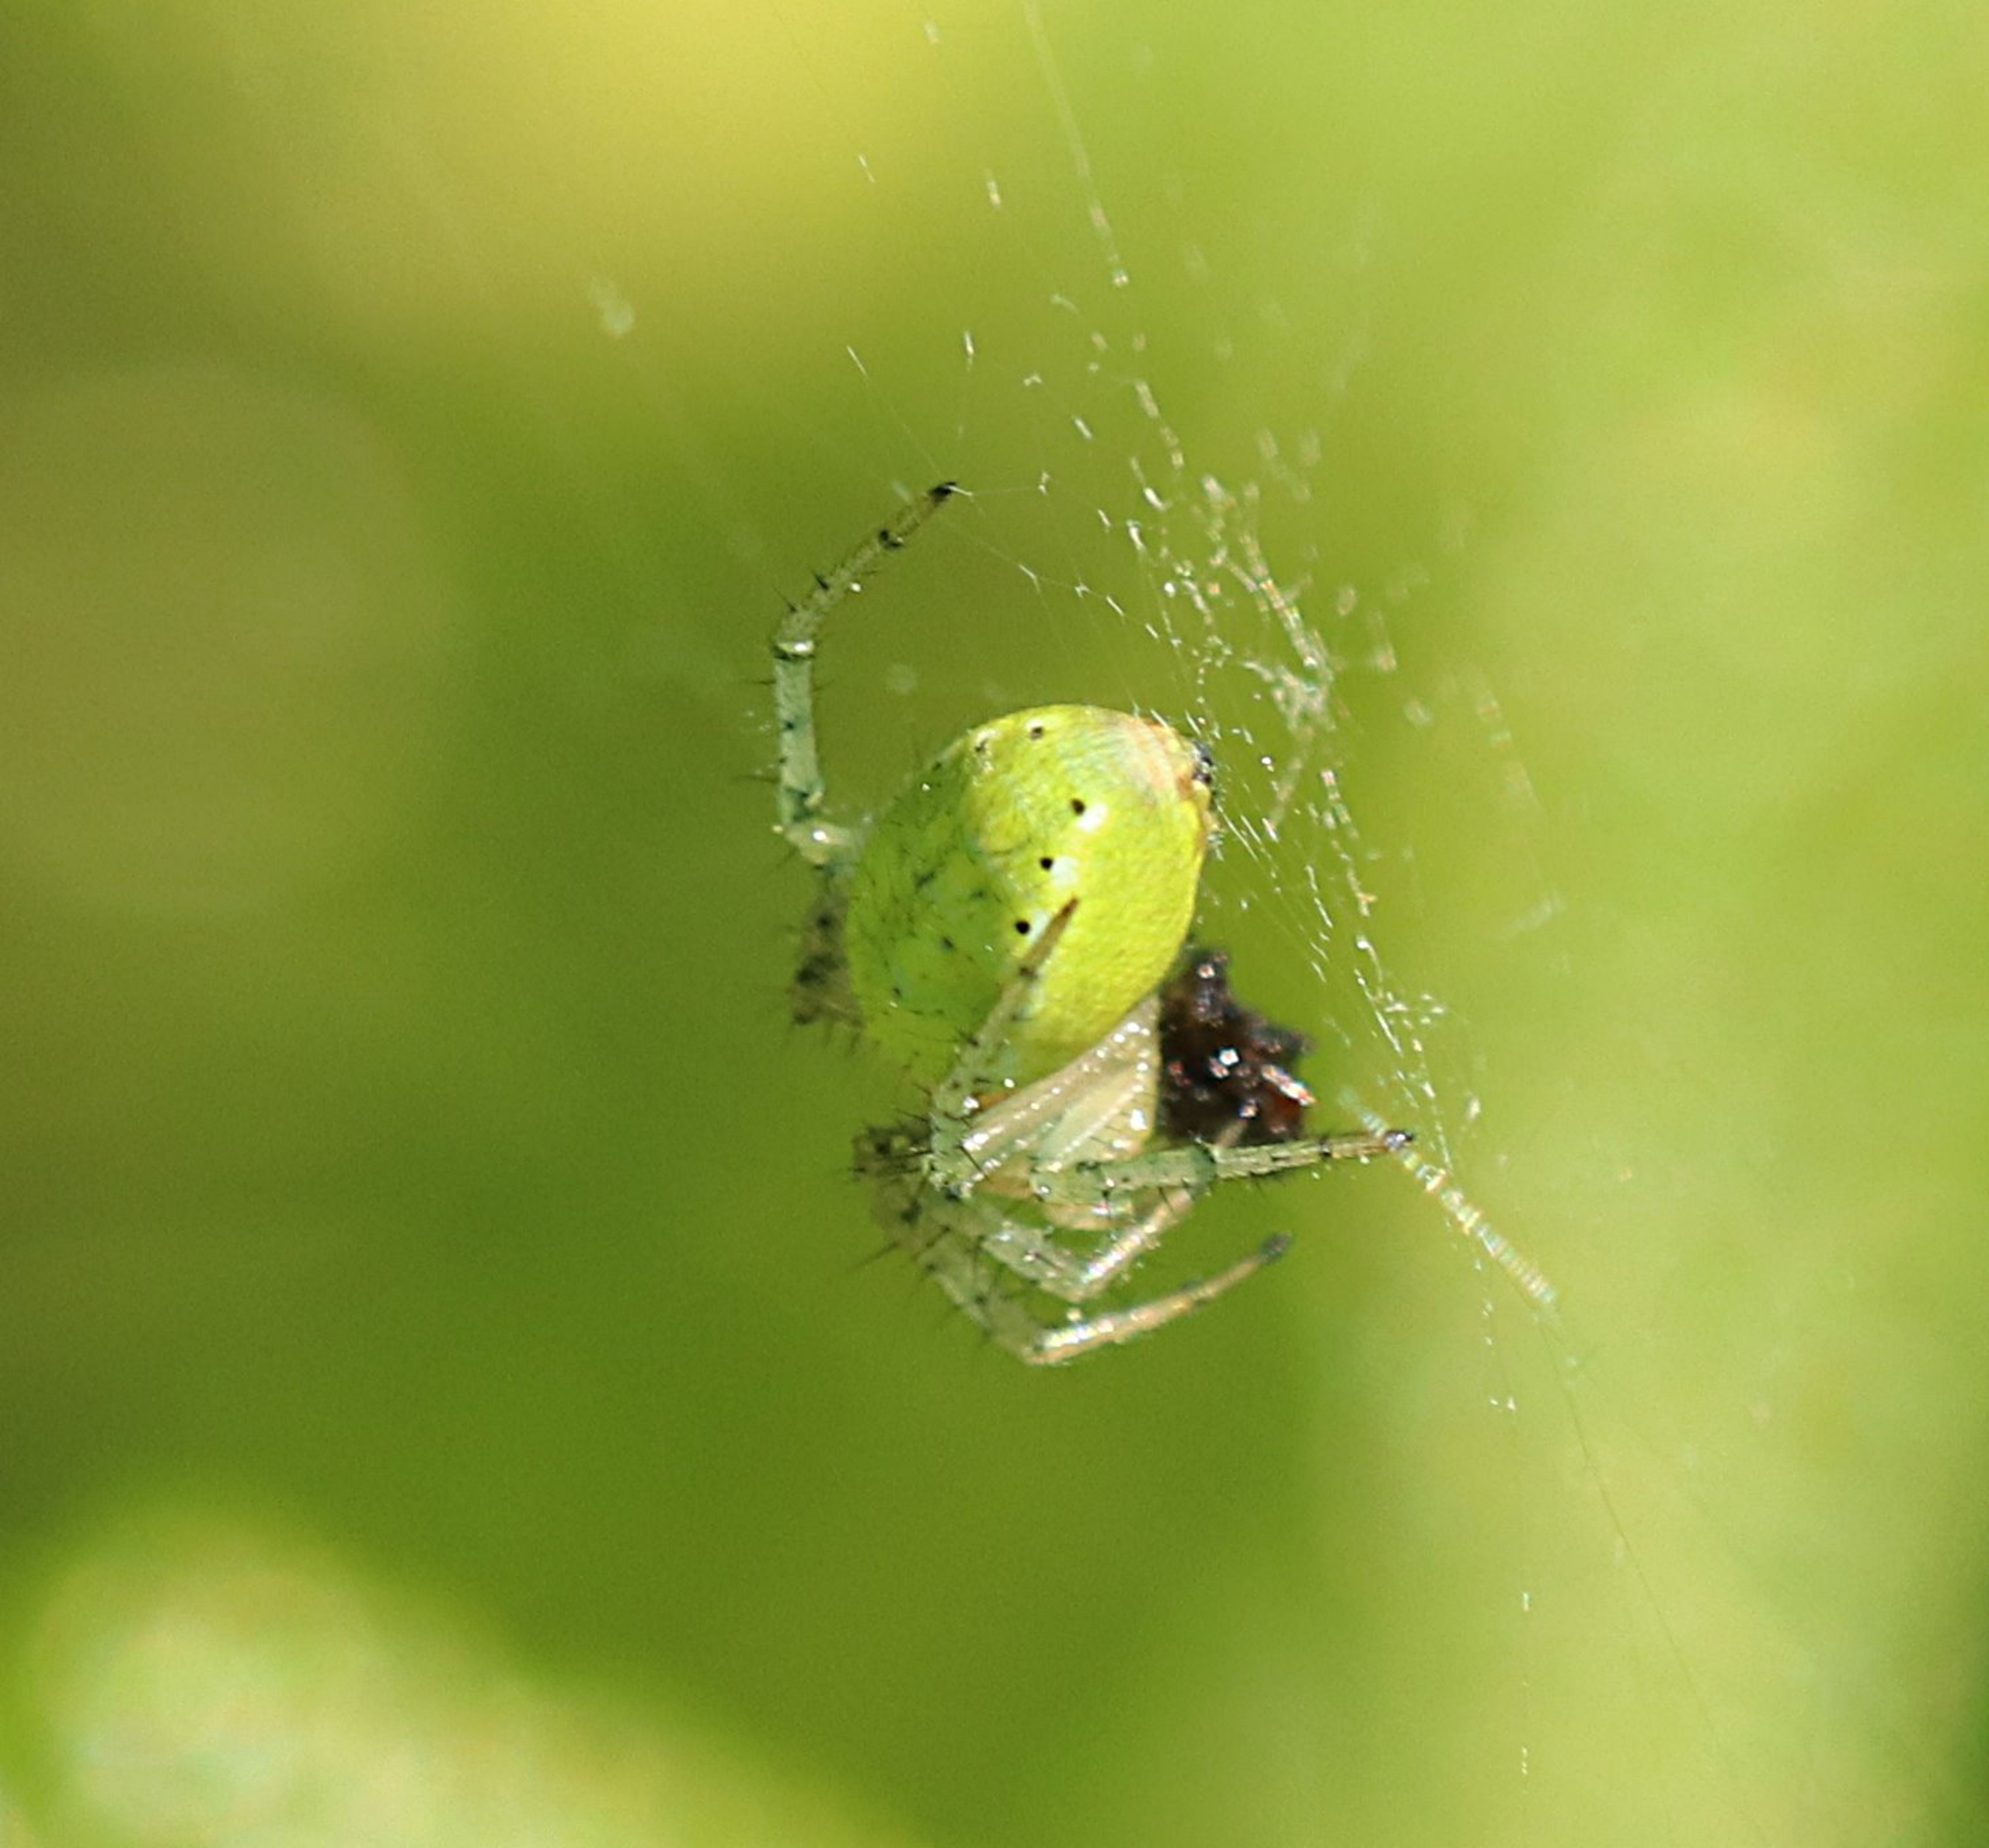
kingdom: Animalia
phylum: Arthropoda
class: Arachnida
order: Araneae
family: Araneidae
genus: Araniella
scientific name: Araniella
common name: Agurkeedderkopslægten
